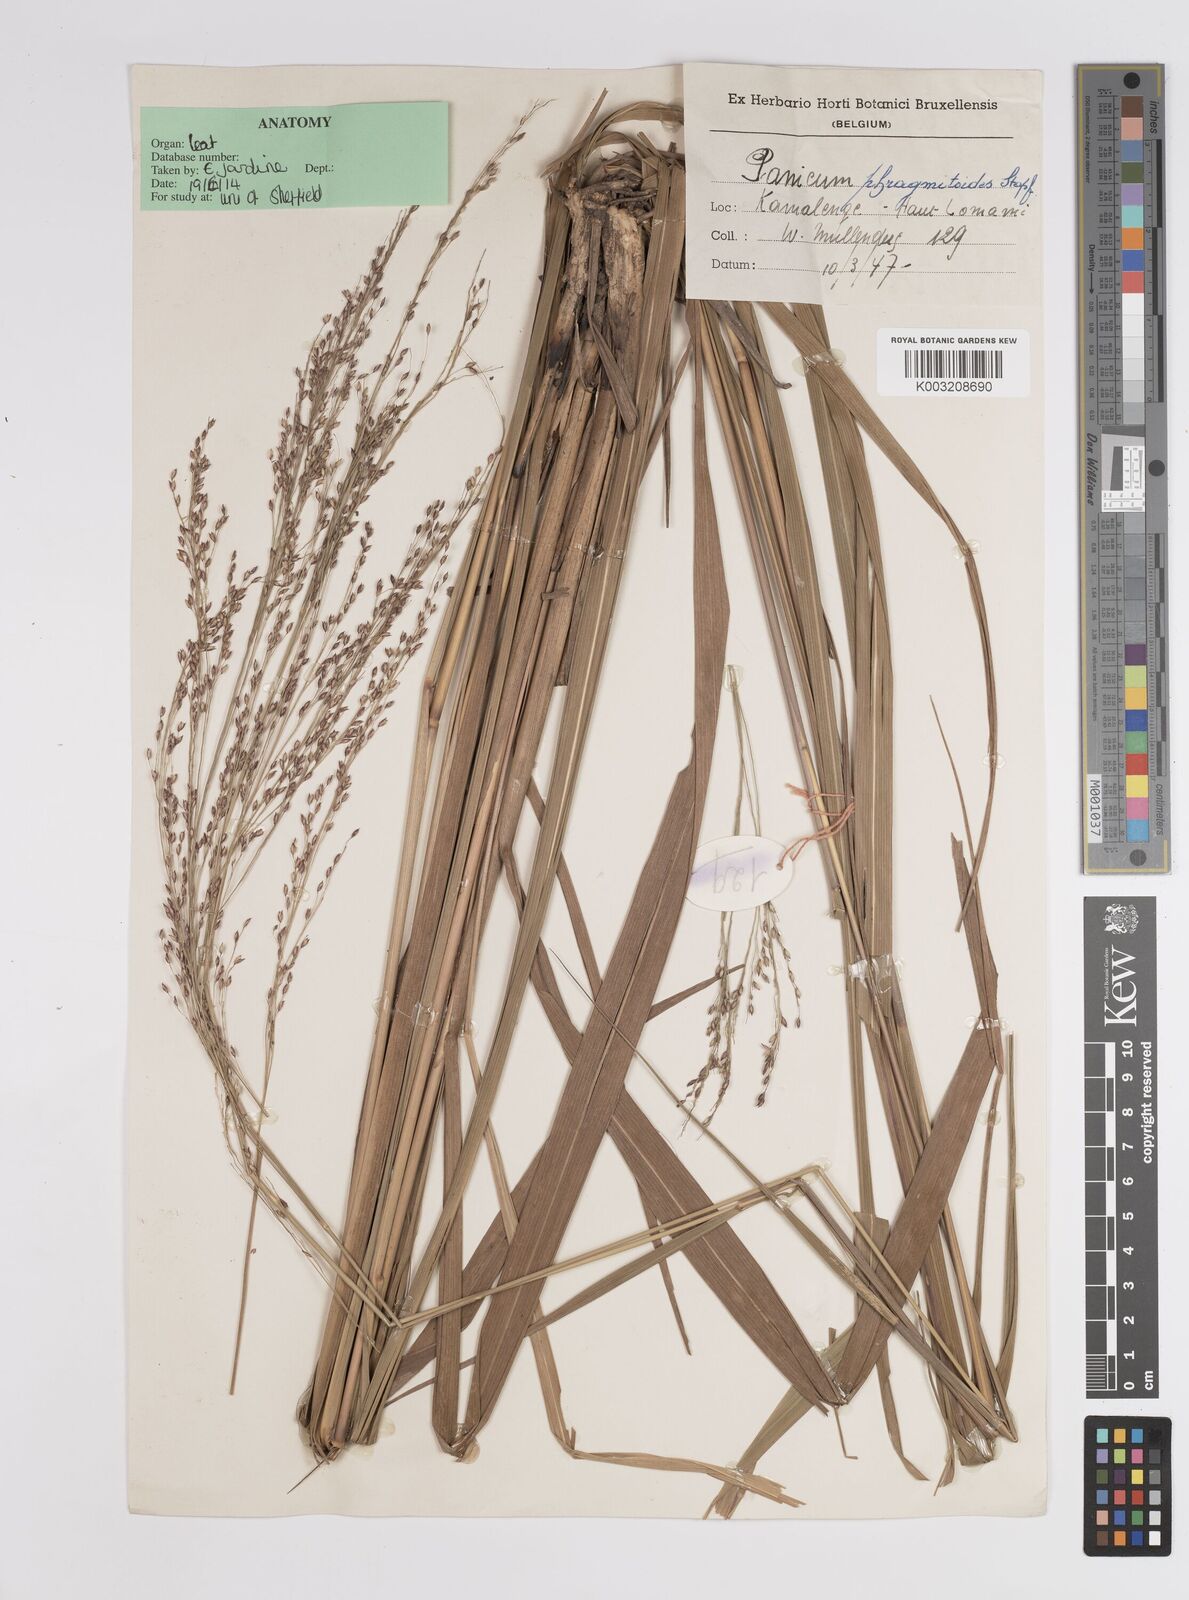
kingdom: Plantae
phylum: Tracheophyta
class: Liliopsida
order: Poales
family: Poaceae
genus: Panicum
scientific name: Panicum phragmitoides
